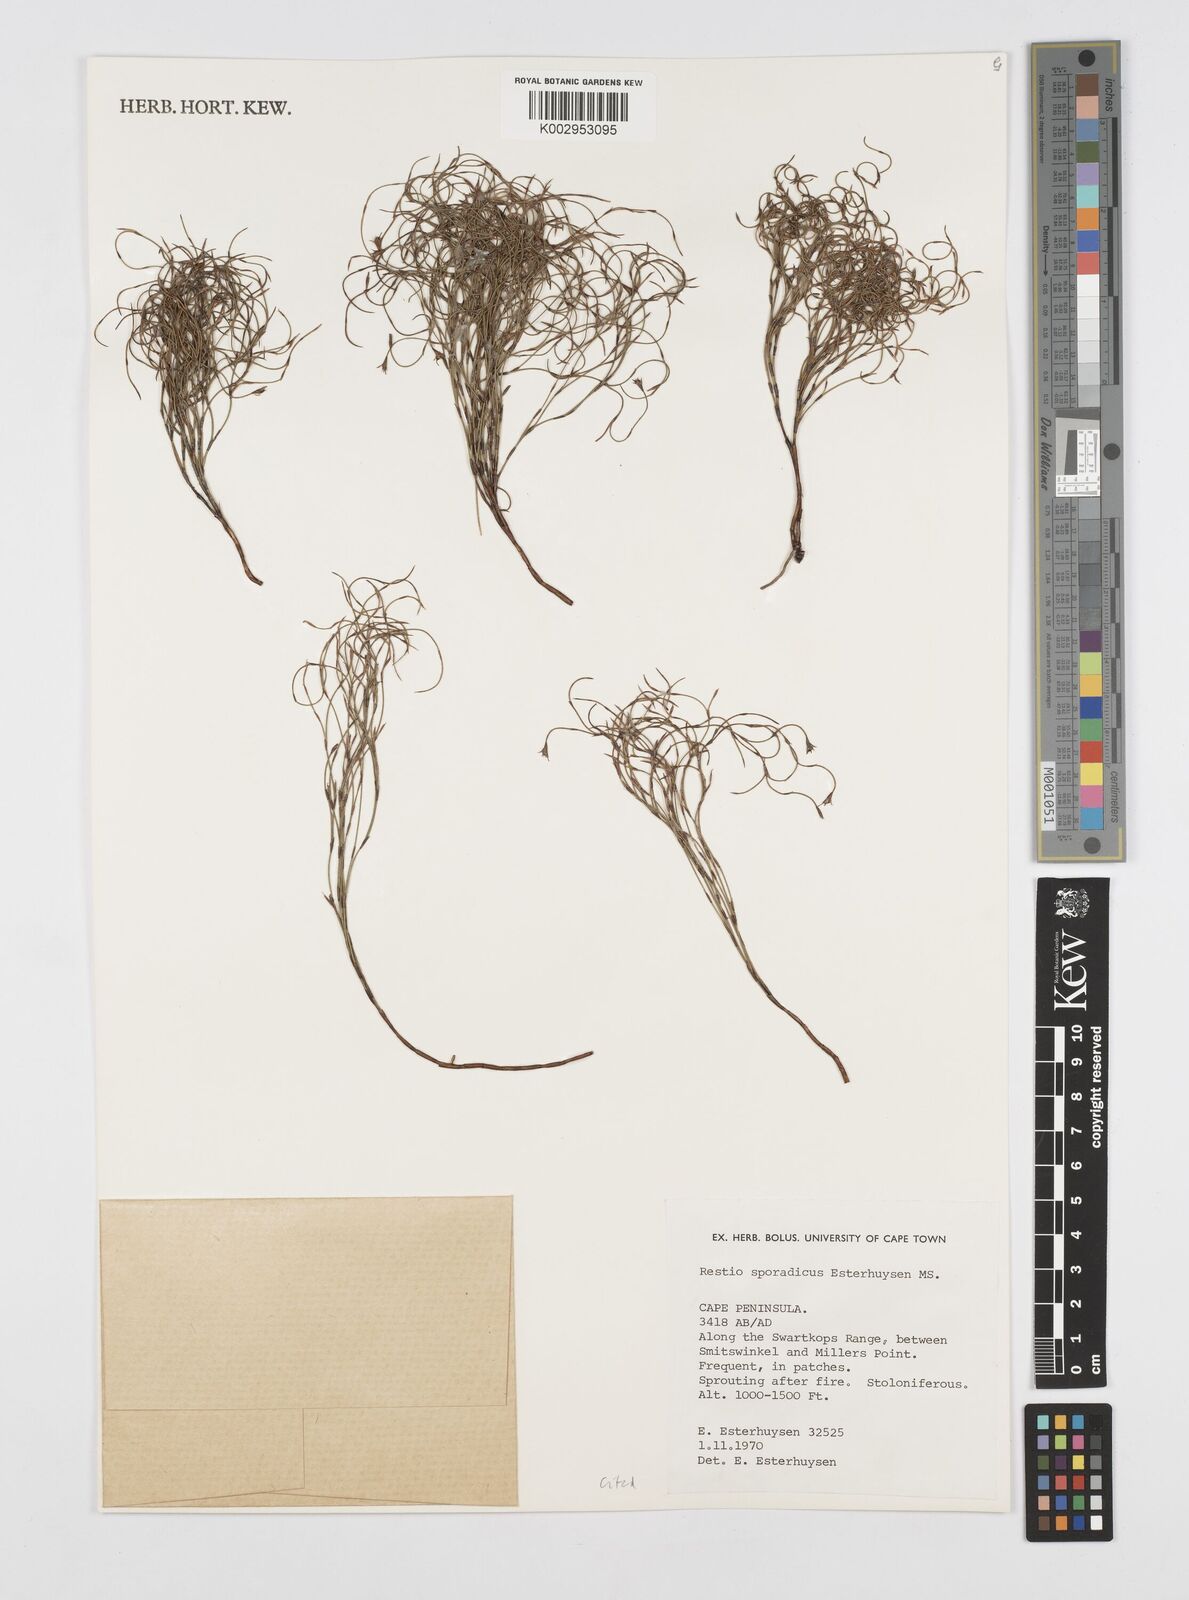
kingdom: Plantae
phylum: Tracheophyta
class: Liliopsida
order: Poales
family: Restionaceae
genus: Restio
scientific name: Restio sporadicus
